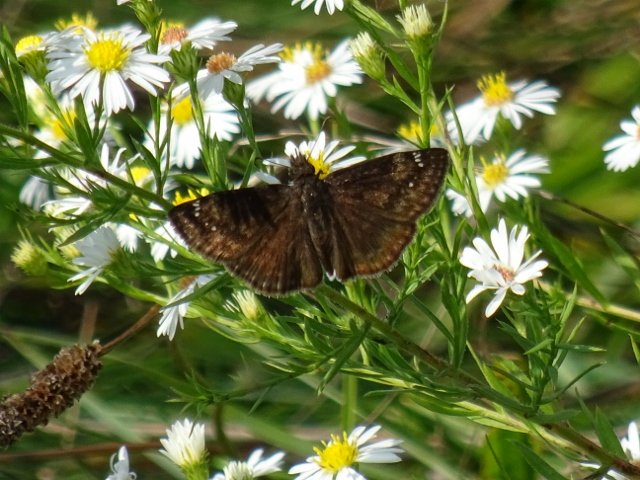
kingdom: Animalia
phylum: Arthropoda
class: Insecta
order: Lepidoptera
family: Hesperiidae
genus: Gesta
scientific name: Gesta
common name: Wild Indigo Duskywing
